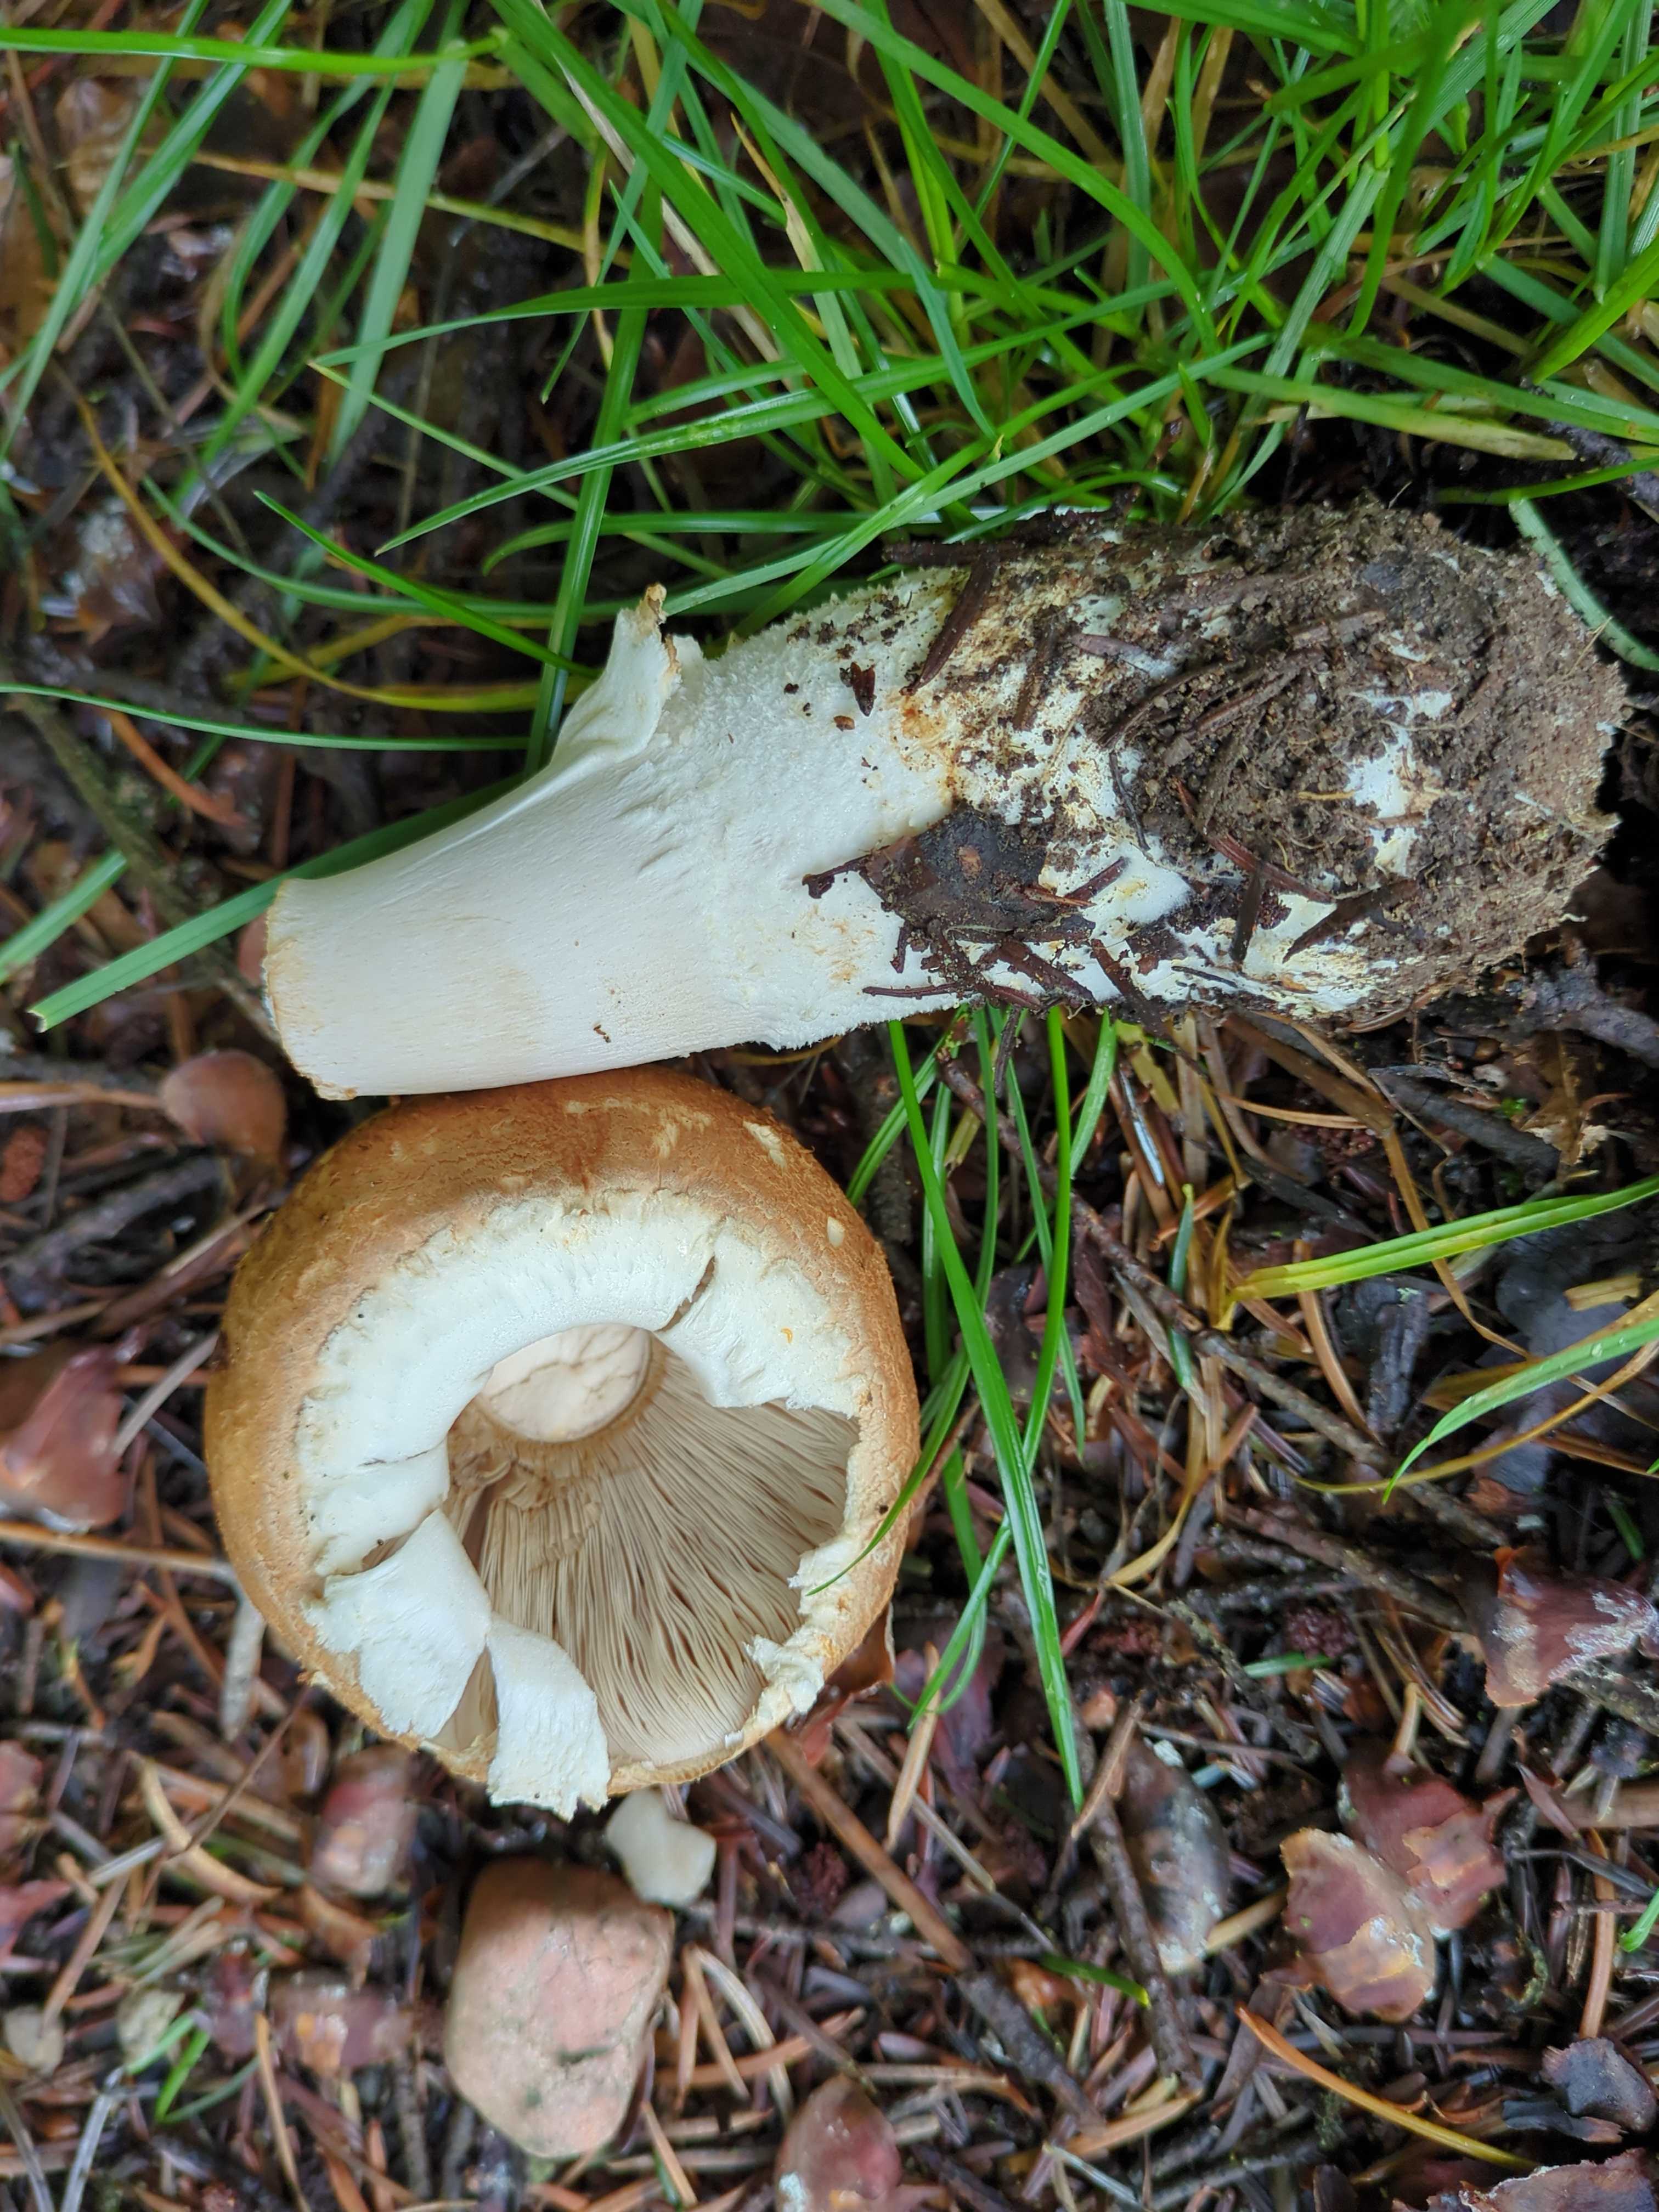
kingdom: Fungi
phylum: Basidiomycota
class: Agaricomycetes
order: Agaricales
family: Agaricaceae
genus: Agaricus
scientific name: Agaricus augustus
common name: prægtig champignon
